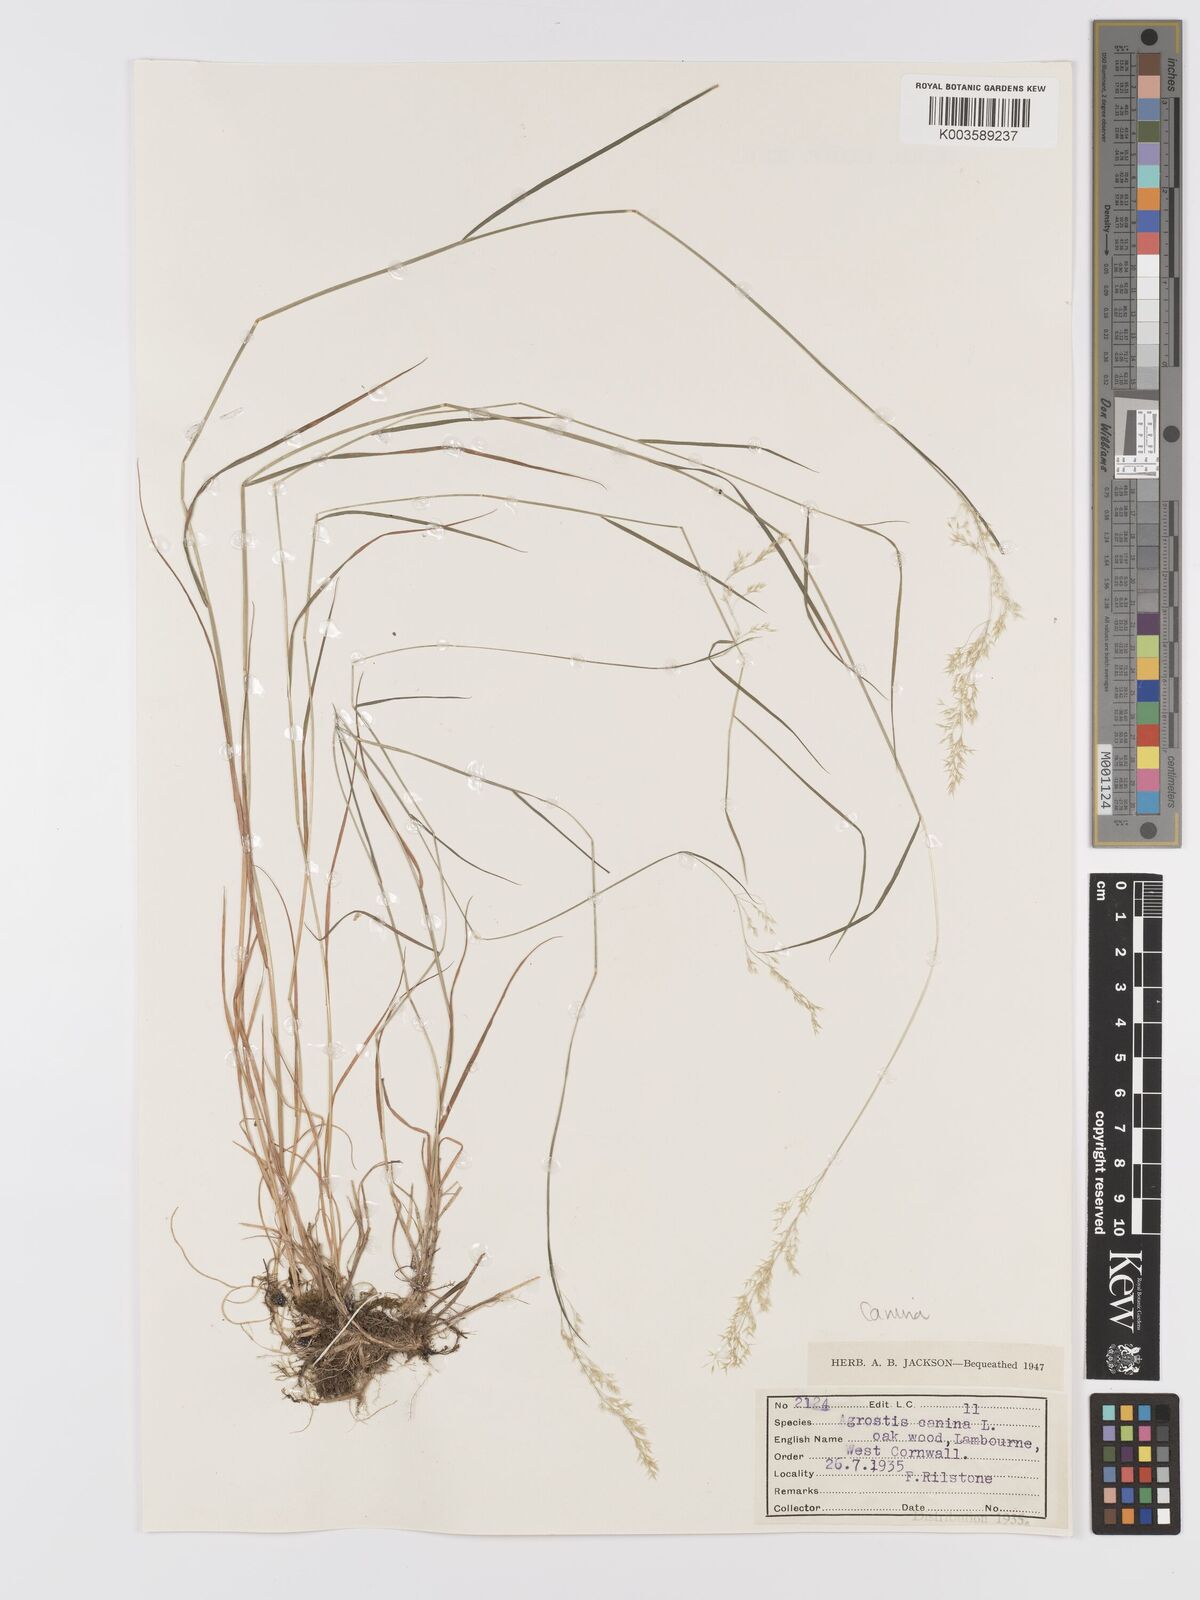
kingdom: Plantae
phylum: Tracheophyta
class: Liliopsida
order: Poales
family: Poaceae
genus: Agrostis
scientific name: Agrostis canina
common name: Velvet bent
